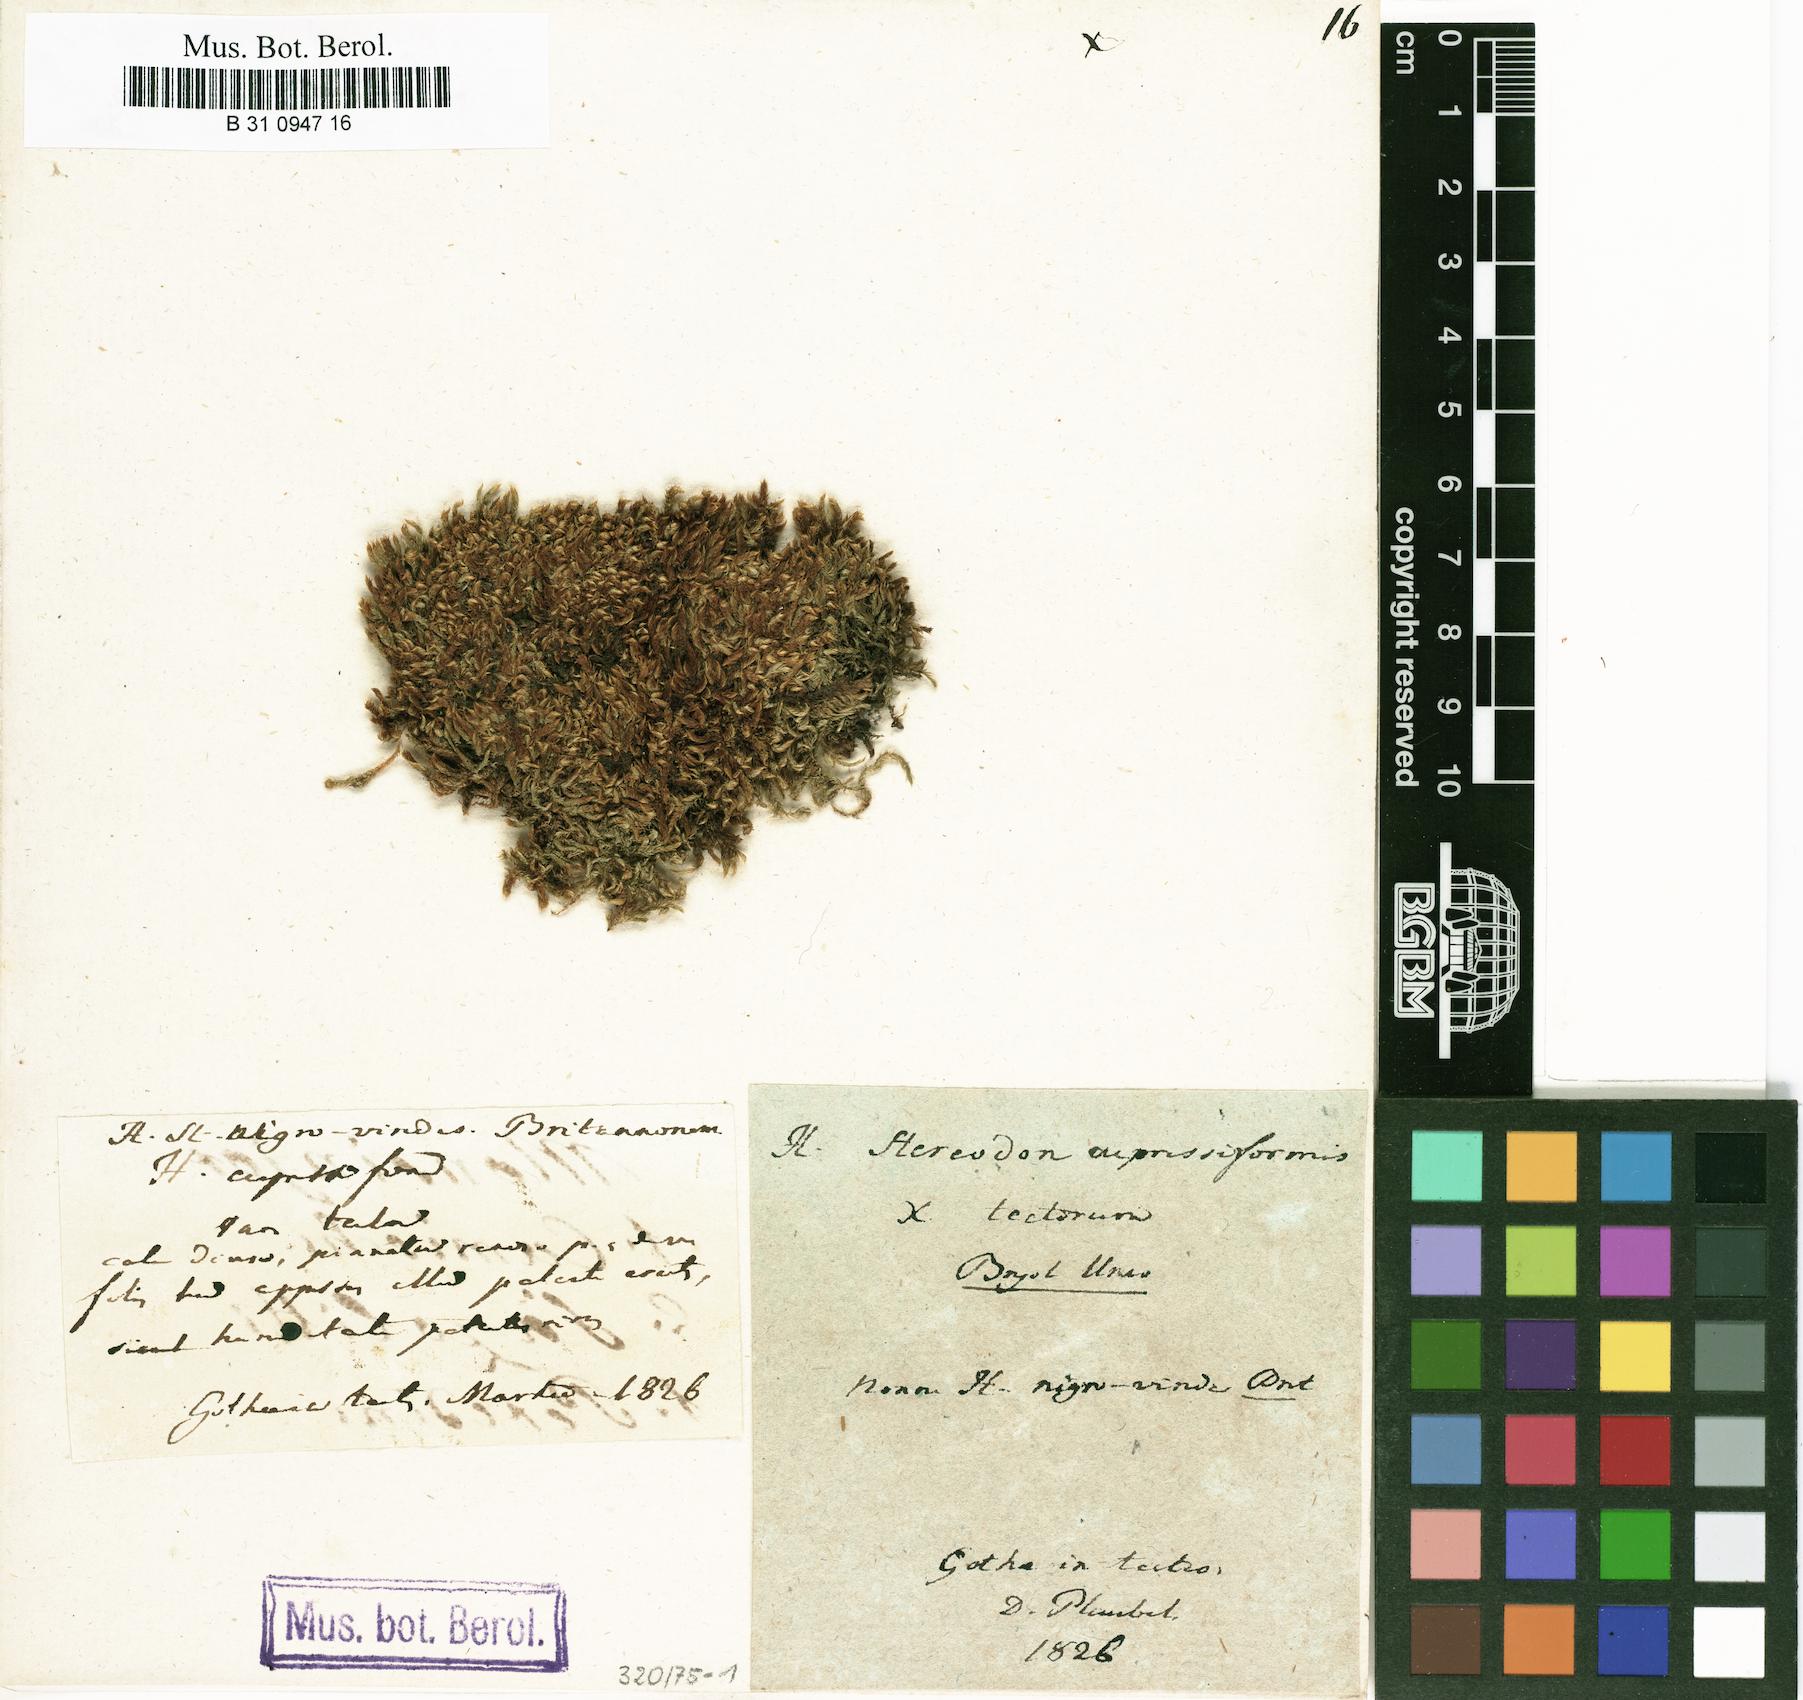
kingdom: Plantae
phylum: Bryophyta
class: Bryopsida
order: Hypnales
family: Hypnaceae
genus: Hypnum
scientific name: Hypnum cupressiforme
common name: Cypress-leaved plait-moss
